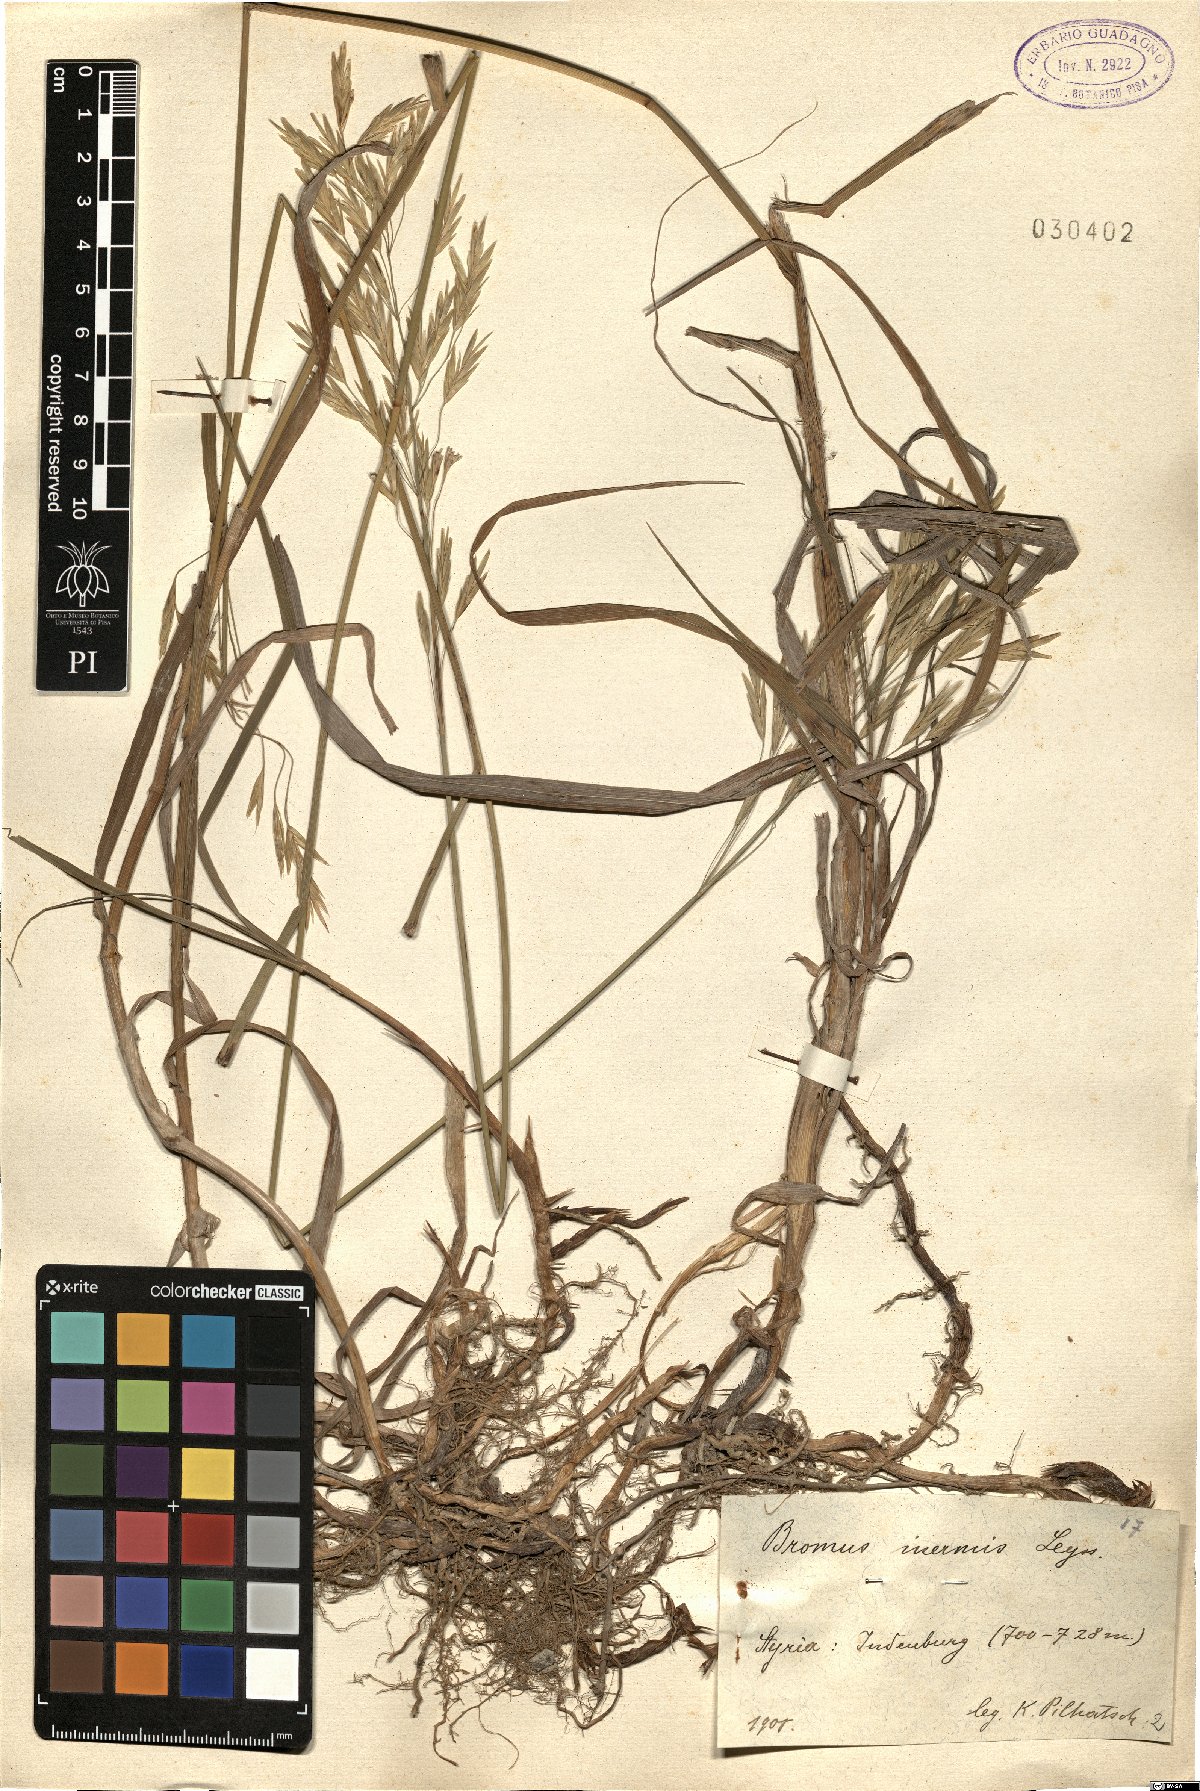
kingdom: Plantae
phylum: Tracheophyta
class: Liliopsida
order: Poales
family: Poaceae
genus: Bromus
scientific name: Bromus inermis
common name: Smooth brome
